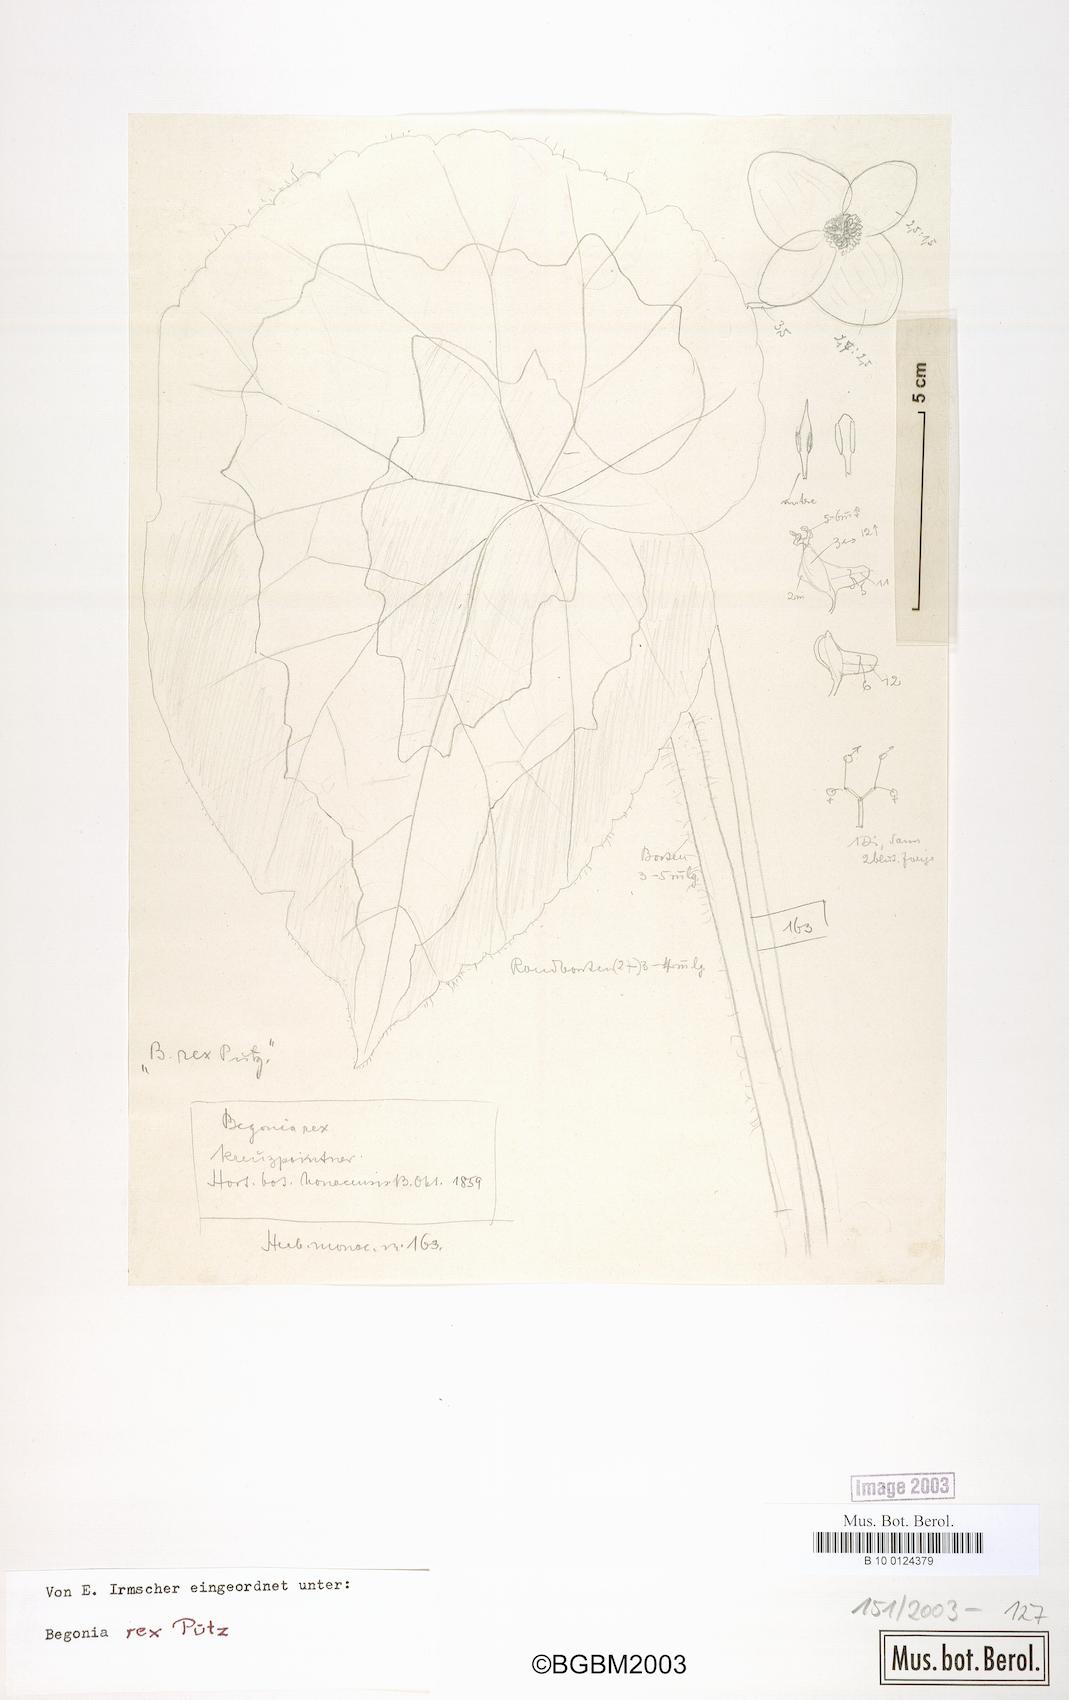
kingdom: Plantae
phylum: Tracheophyta
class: Magnoliopsida
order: Cucurbitales
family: Begoniaceae
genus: Begonia
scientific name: Begonia rex
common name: Painted-leaf begonia
